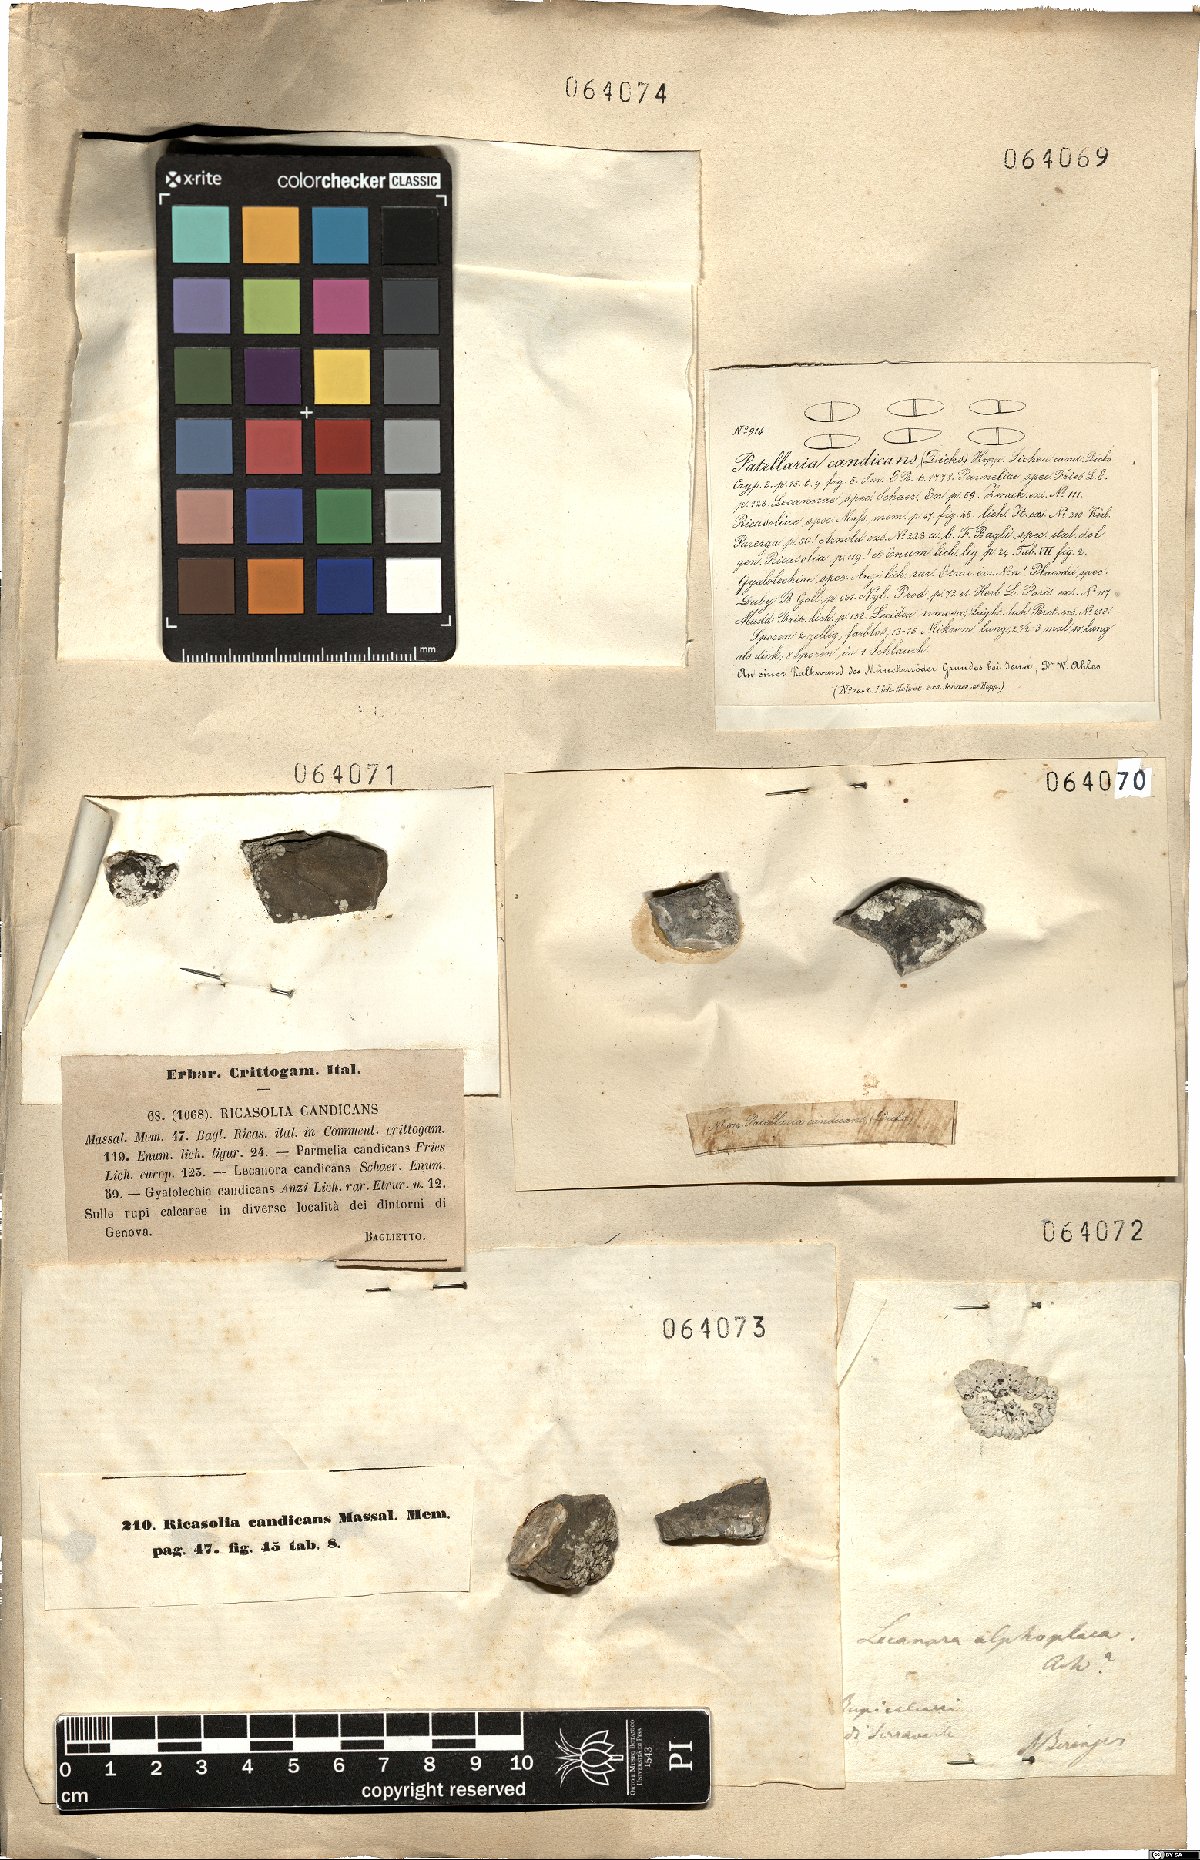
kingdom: Fungi
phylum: Ascomycota
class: Lecanoromycetes
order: Lecanorales
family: Catillariaceae
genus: Solenopsora
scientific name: Solenopsora candicans
